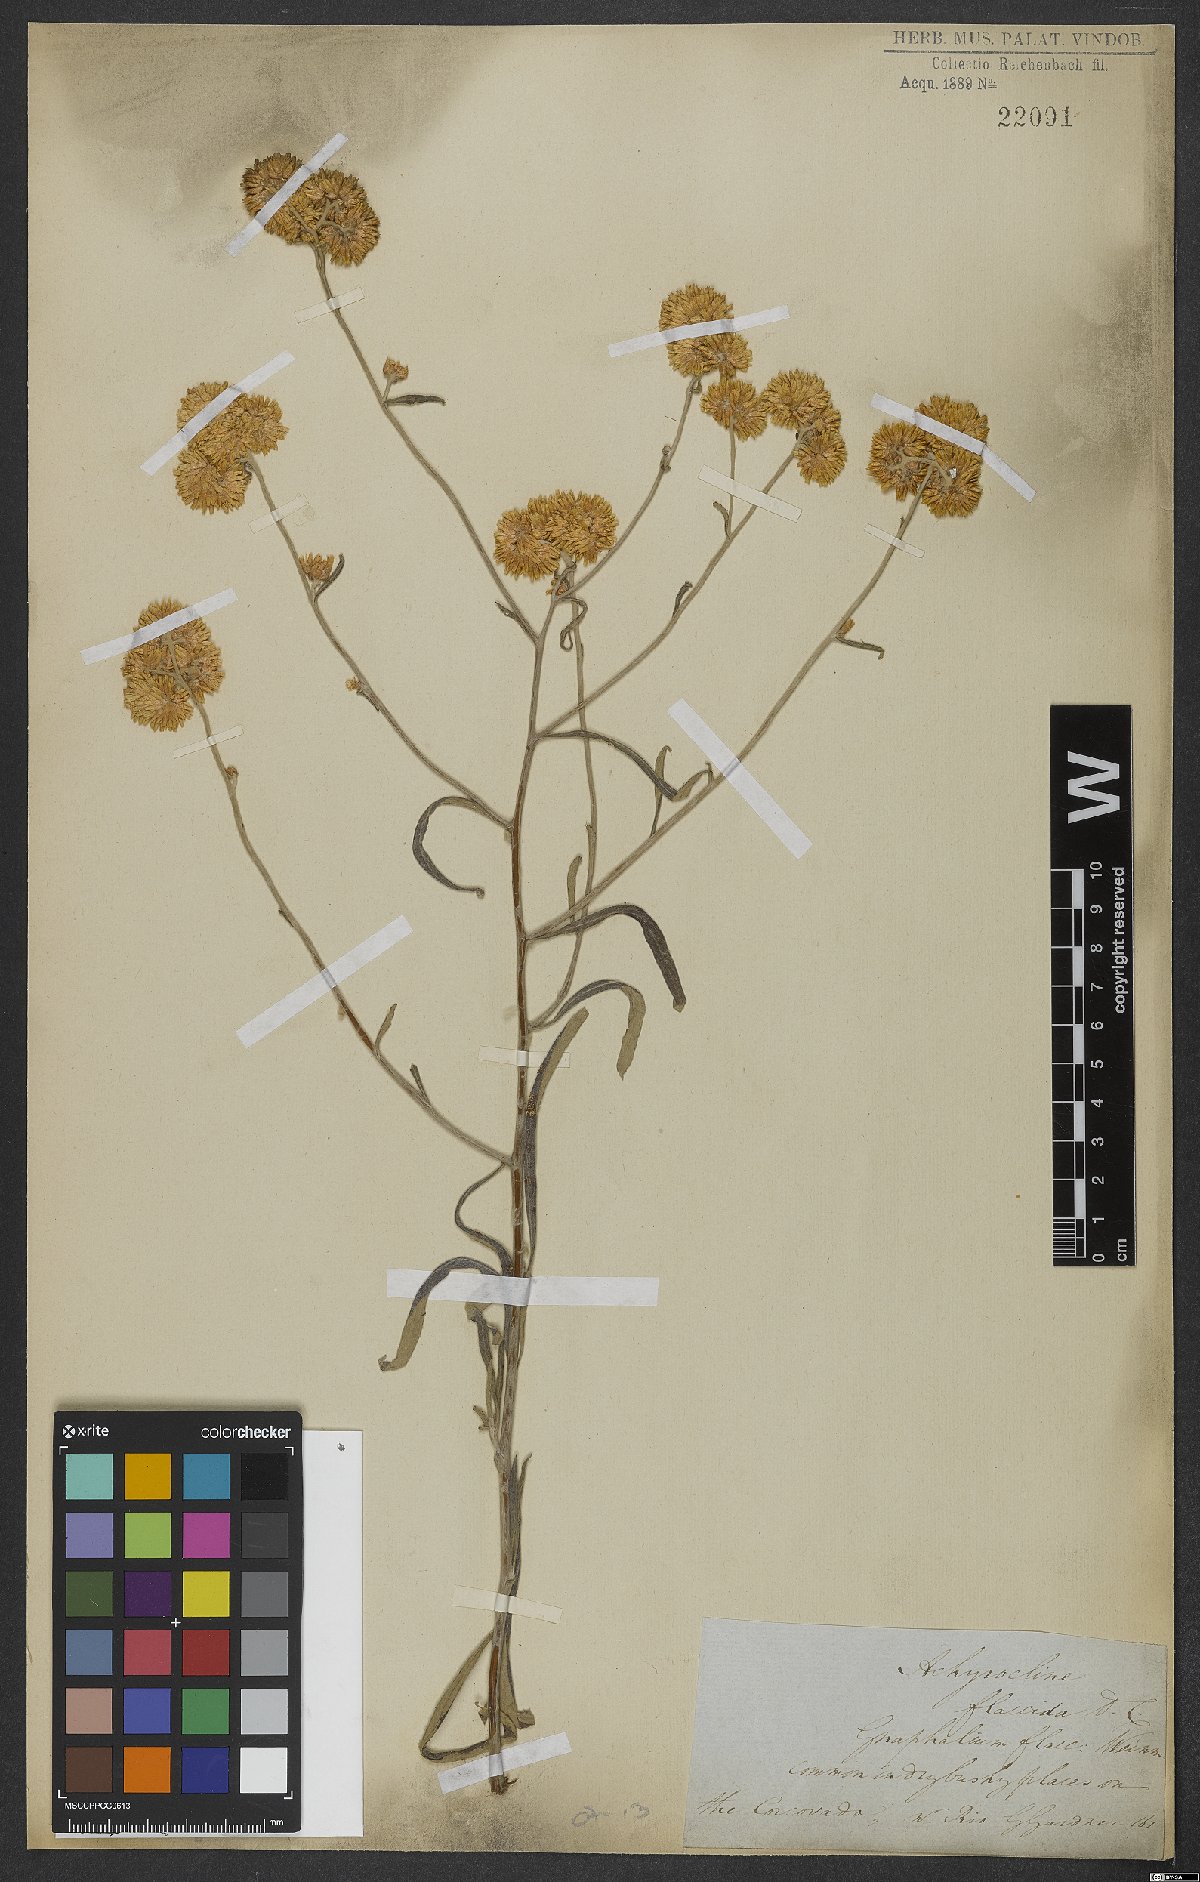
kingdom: Plantae
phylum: Tracheophyta
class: Magnoliopsida
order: Asterales
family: Asteraceae
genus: Achyrocline
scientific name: Achyrocline flaccida
